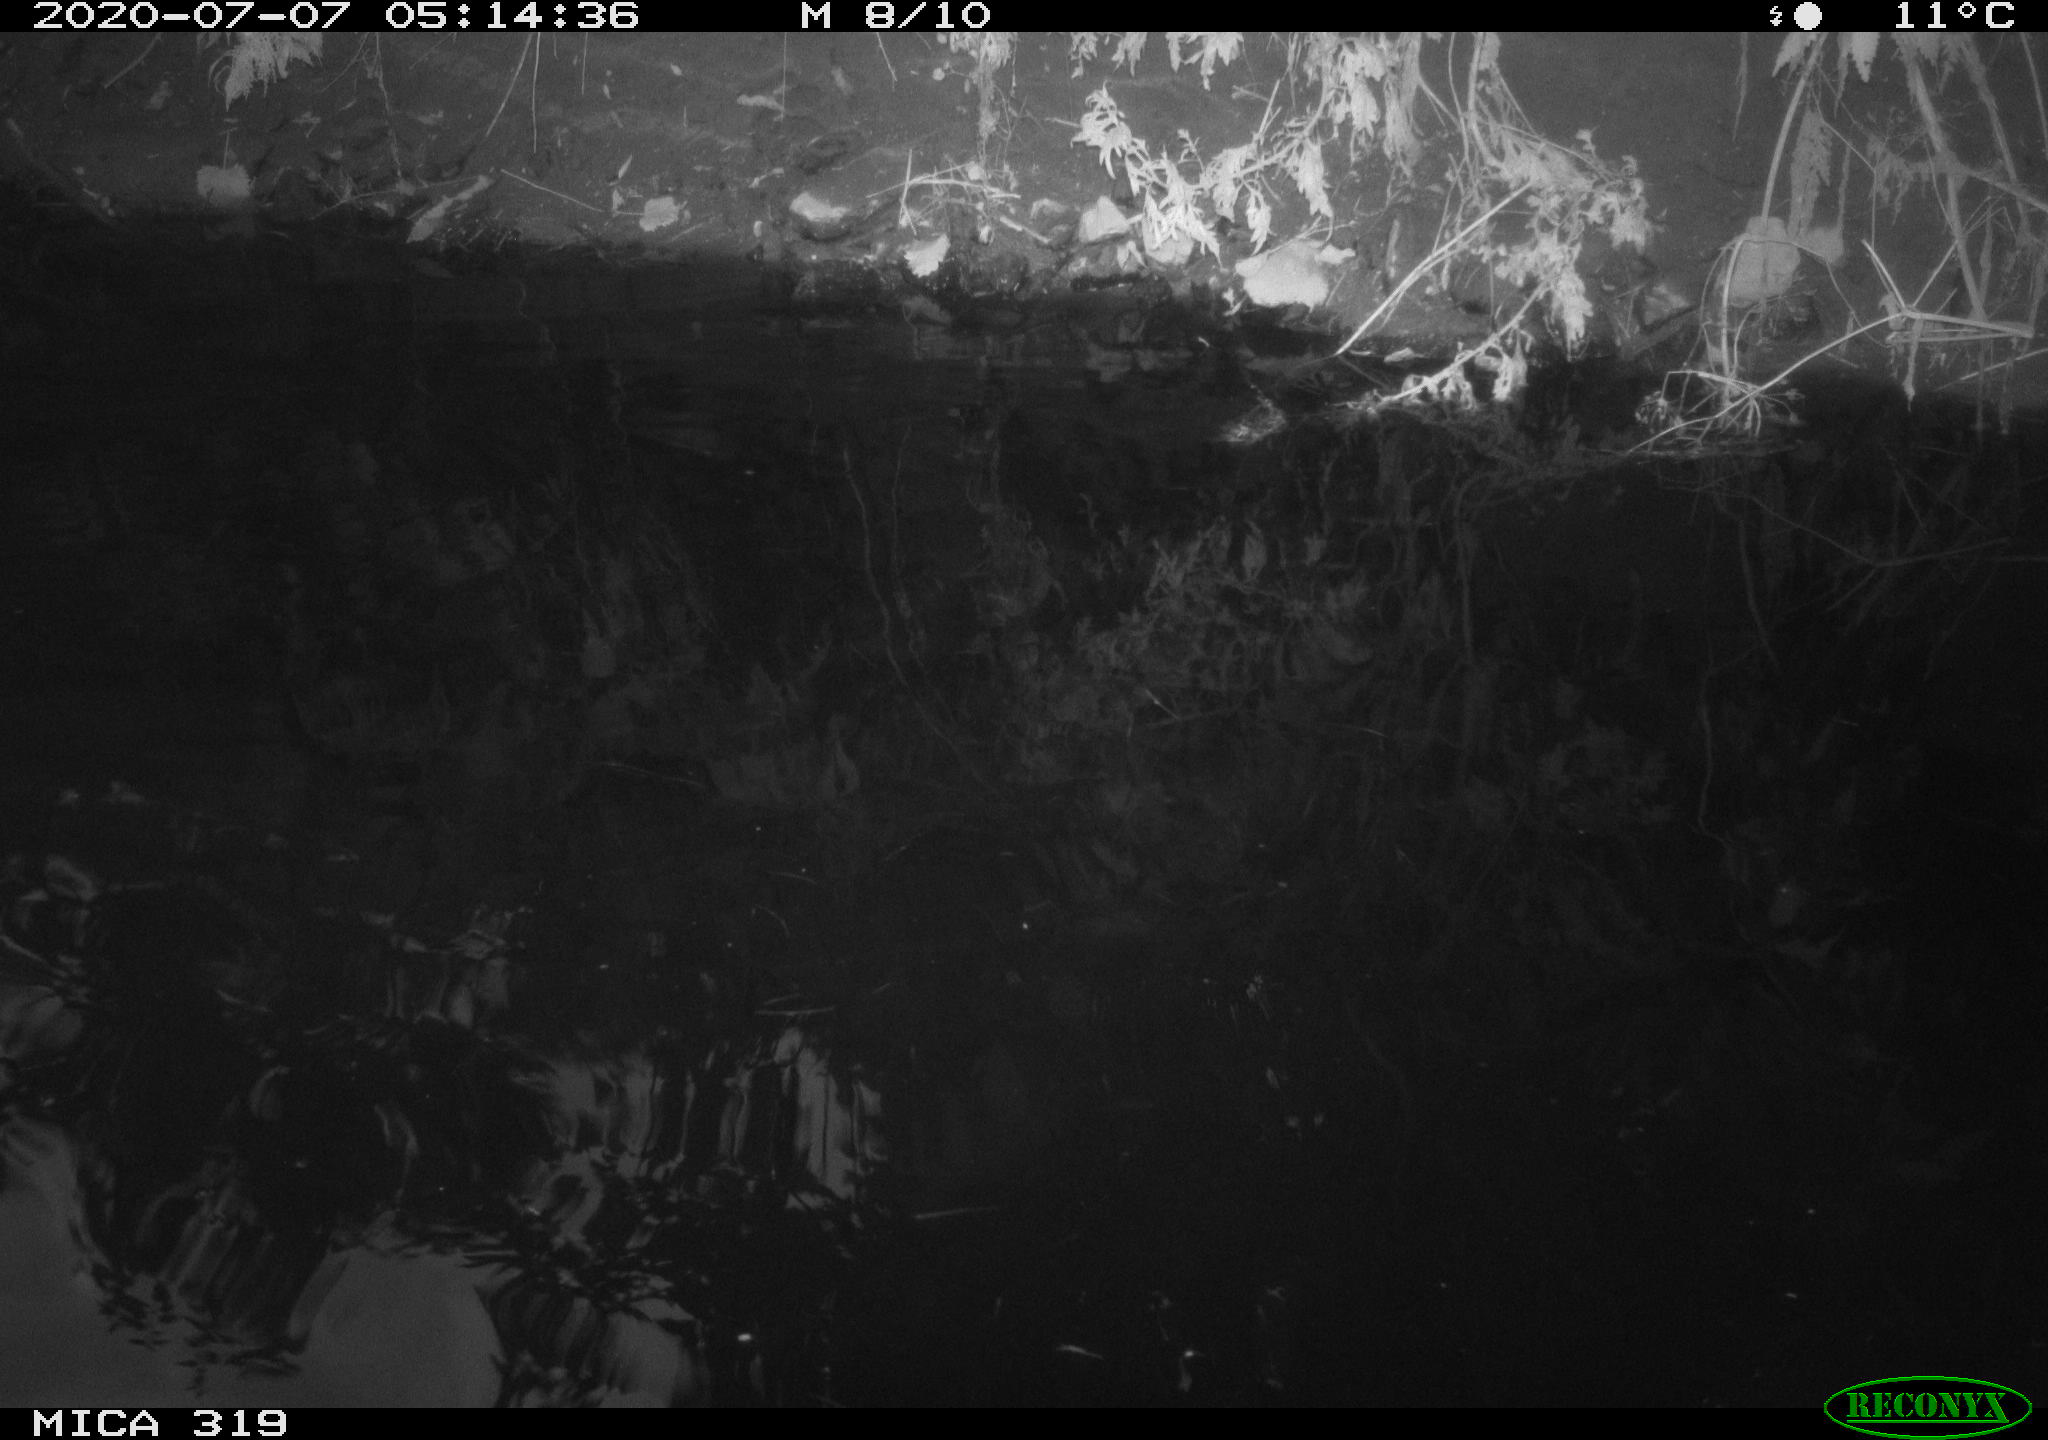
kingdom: Animalia
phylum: Chordata
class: Aves
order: Anseriformes
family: Anatidae
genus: Anas
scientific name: Anas platyrhynchos
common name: Mallard
